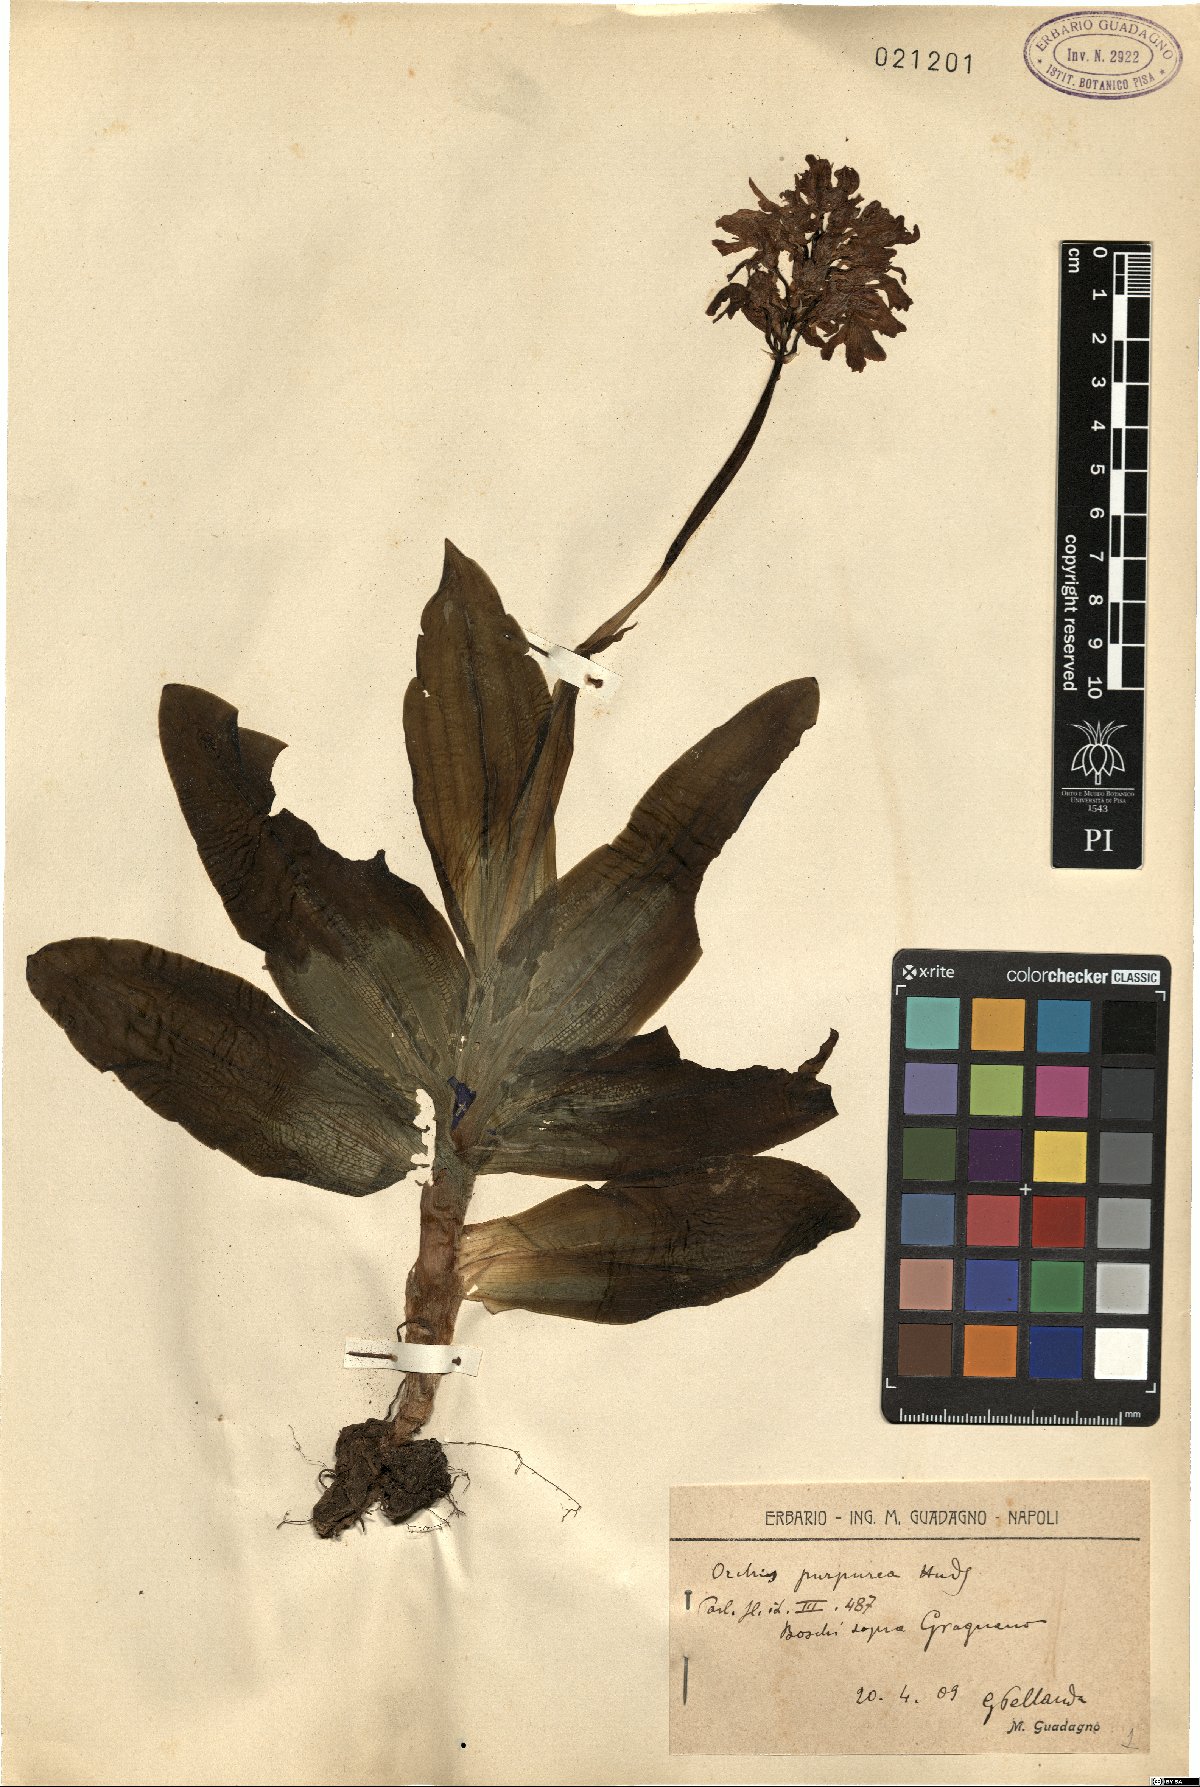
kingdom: Plantae
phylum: Tracheophyta
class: Liliopsida
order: Asparagales
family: Orchidaceae
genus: Orchis
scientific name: Orchis purpurea
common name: Lady orchid
